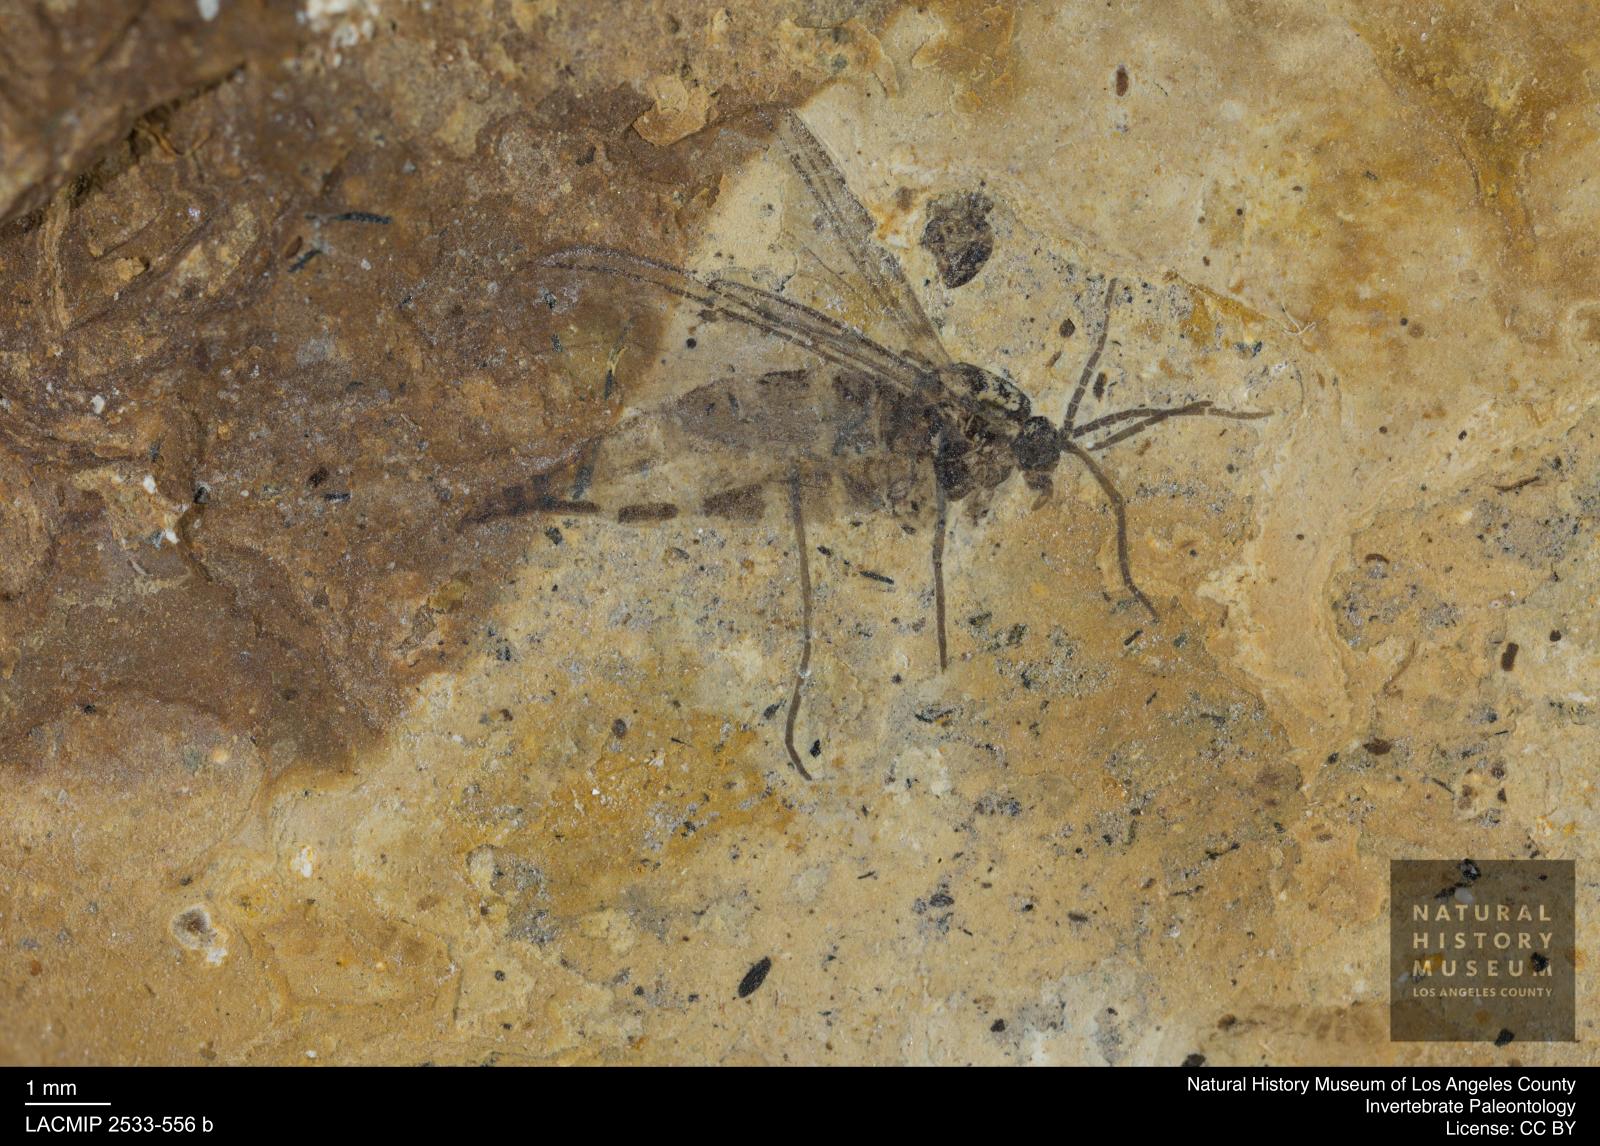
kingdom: Animalia
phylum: Arthropoda
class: Insecta
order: Diptera
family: Sciaridae
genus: Sciara
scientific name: Sciara aulica
